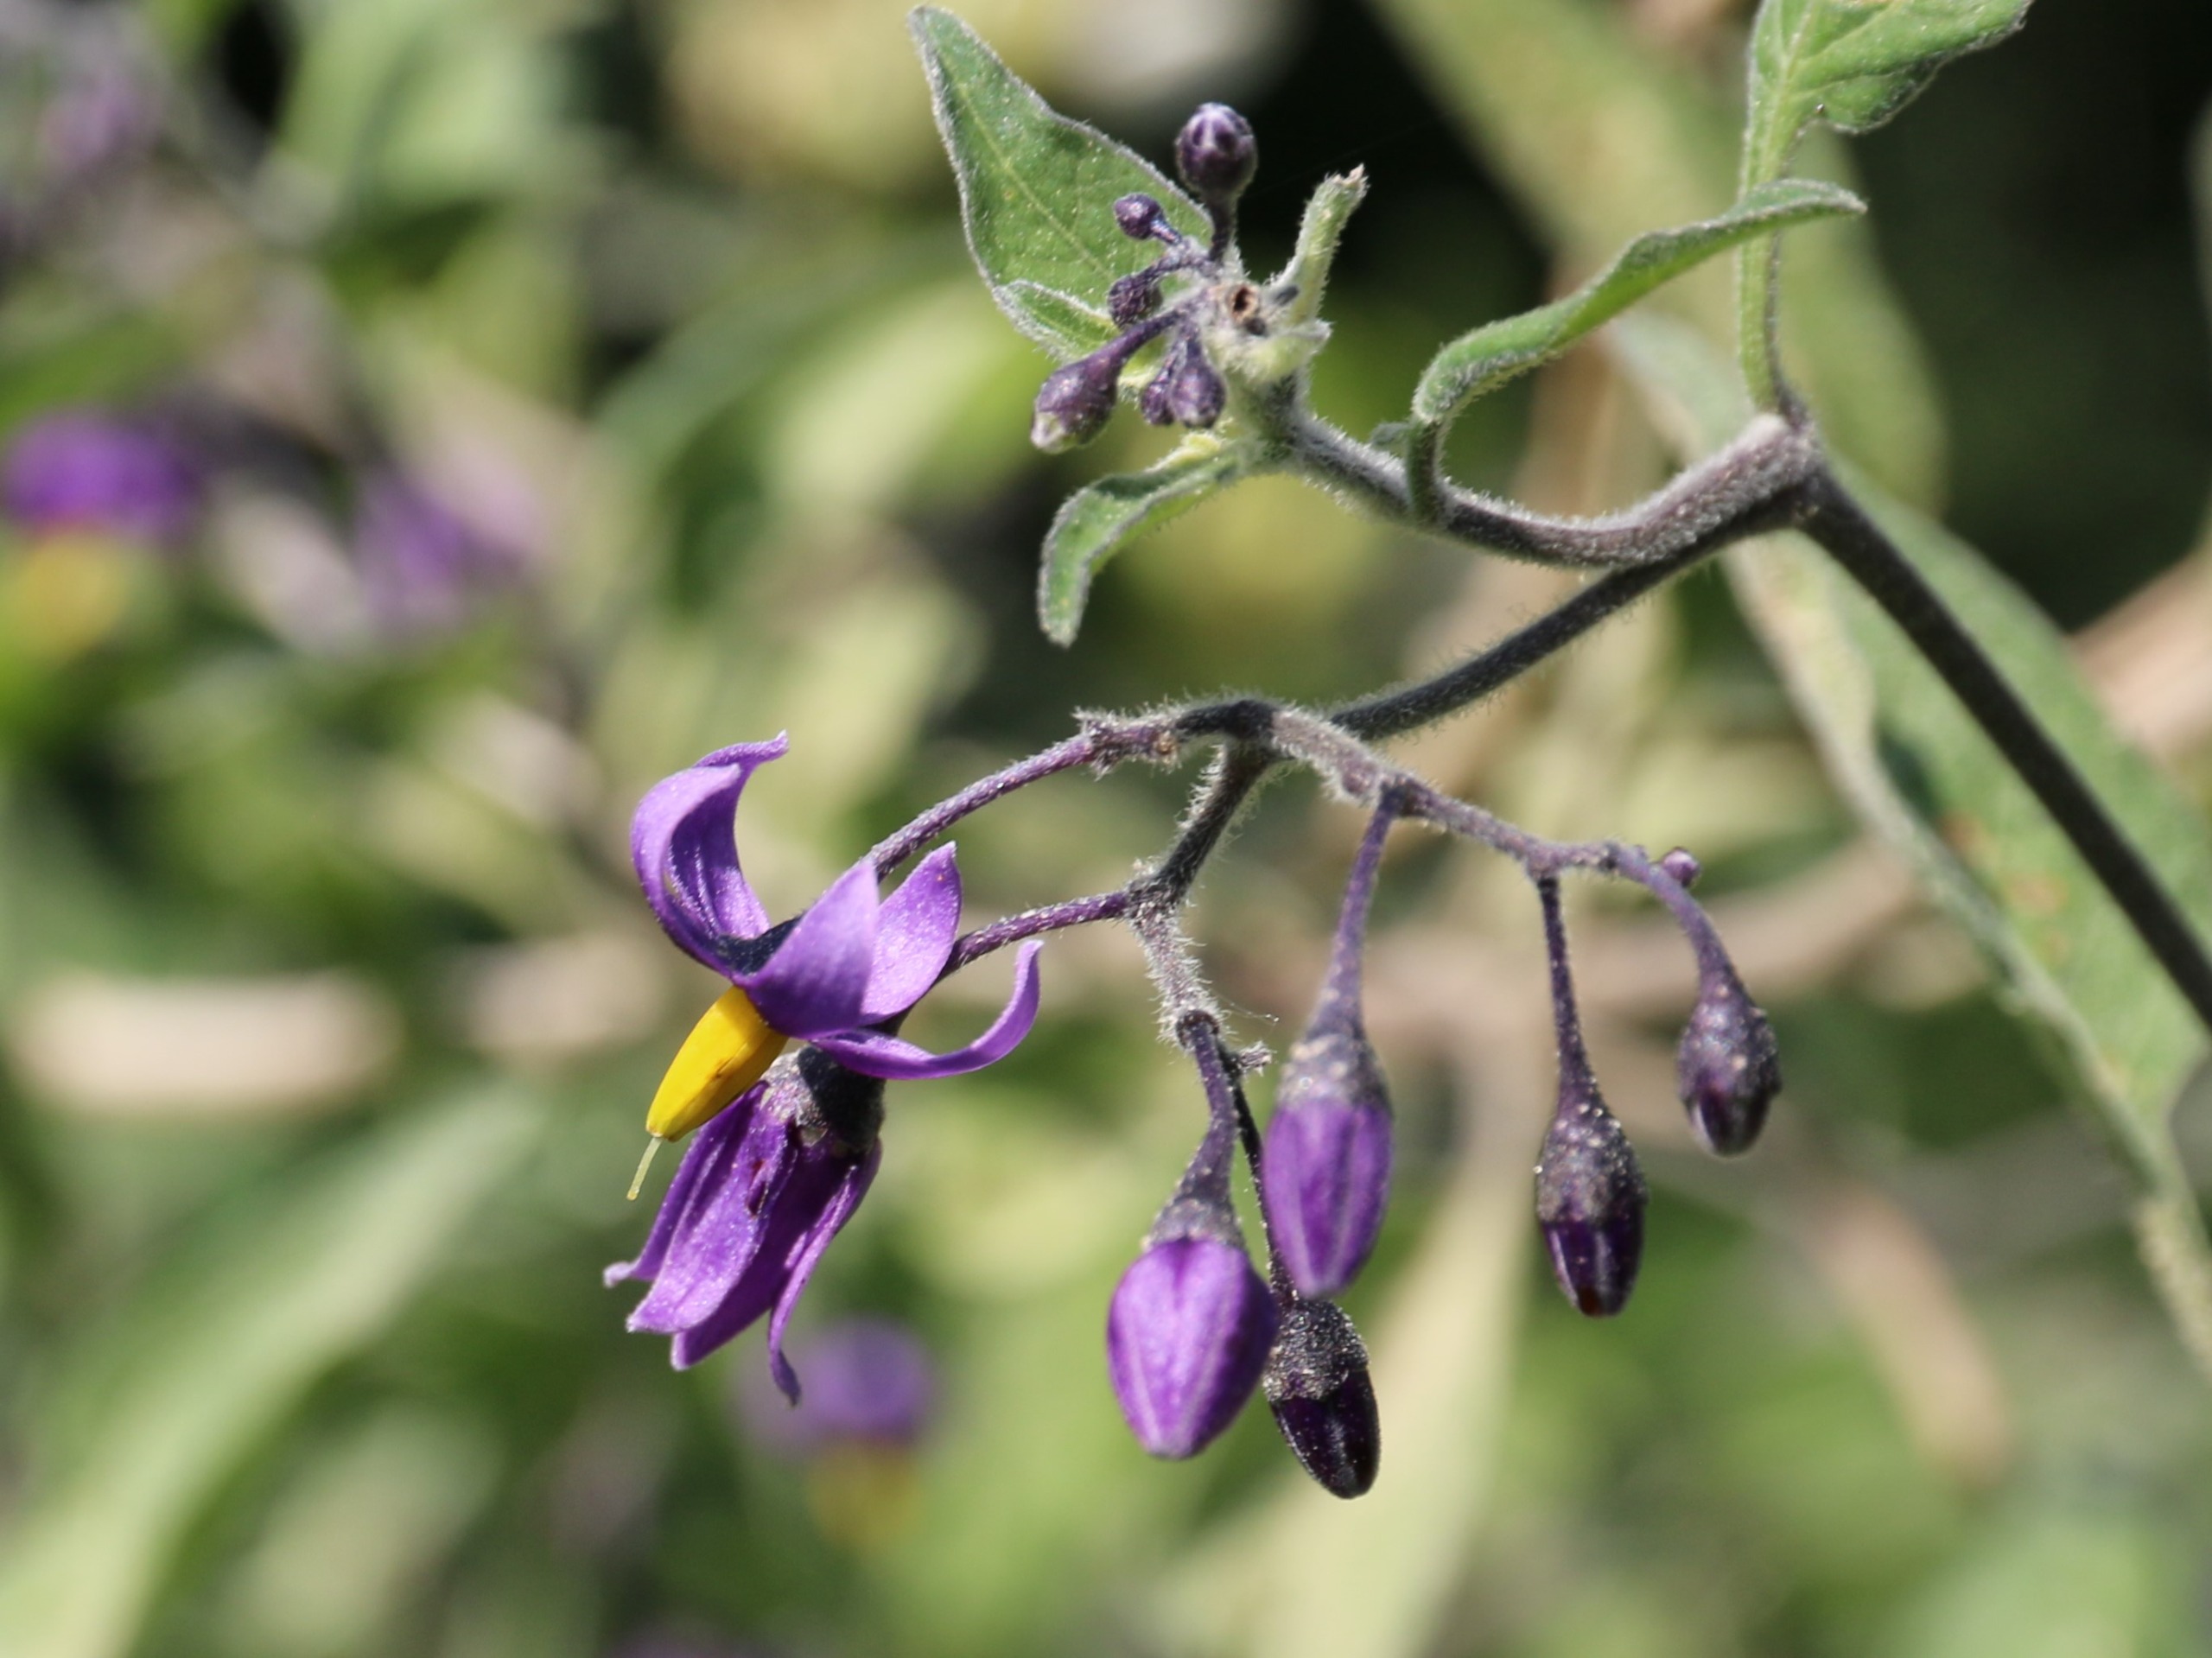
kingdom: Plantae
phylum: Tracheophyta
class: Magnoliopsida
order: Solanales
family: Solanaceae
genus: Solanum
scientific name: Solanum dulcamara
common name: Bittersød natskygge
